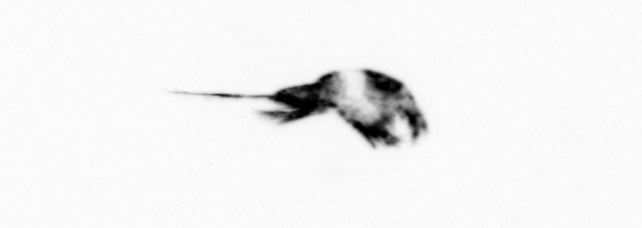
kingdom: Animalia
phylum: Arthropoda
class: Copepoda
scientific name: Copepoda
